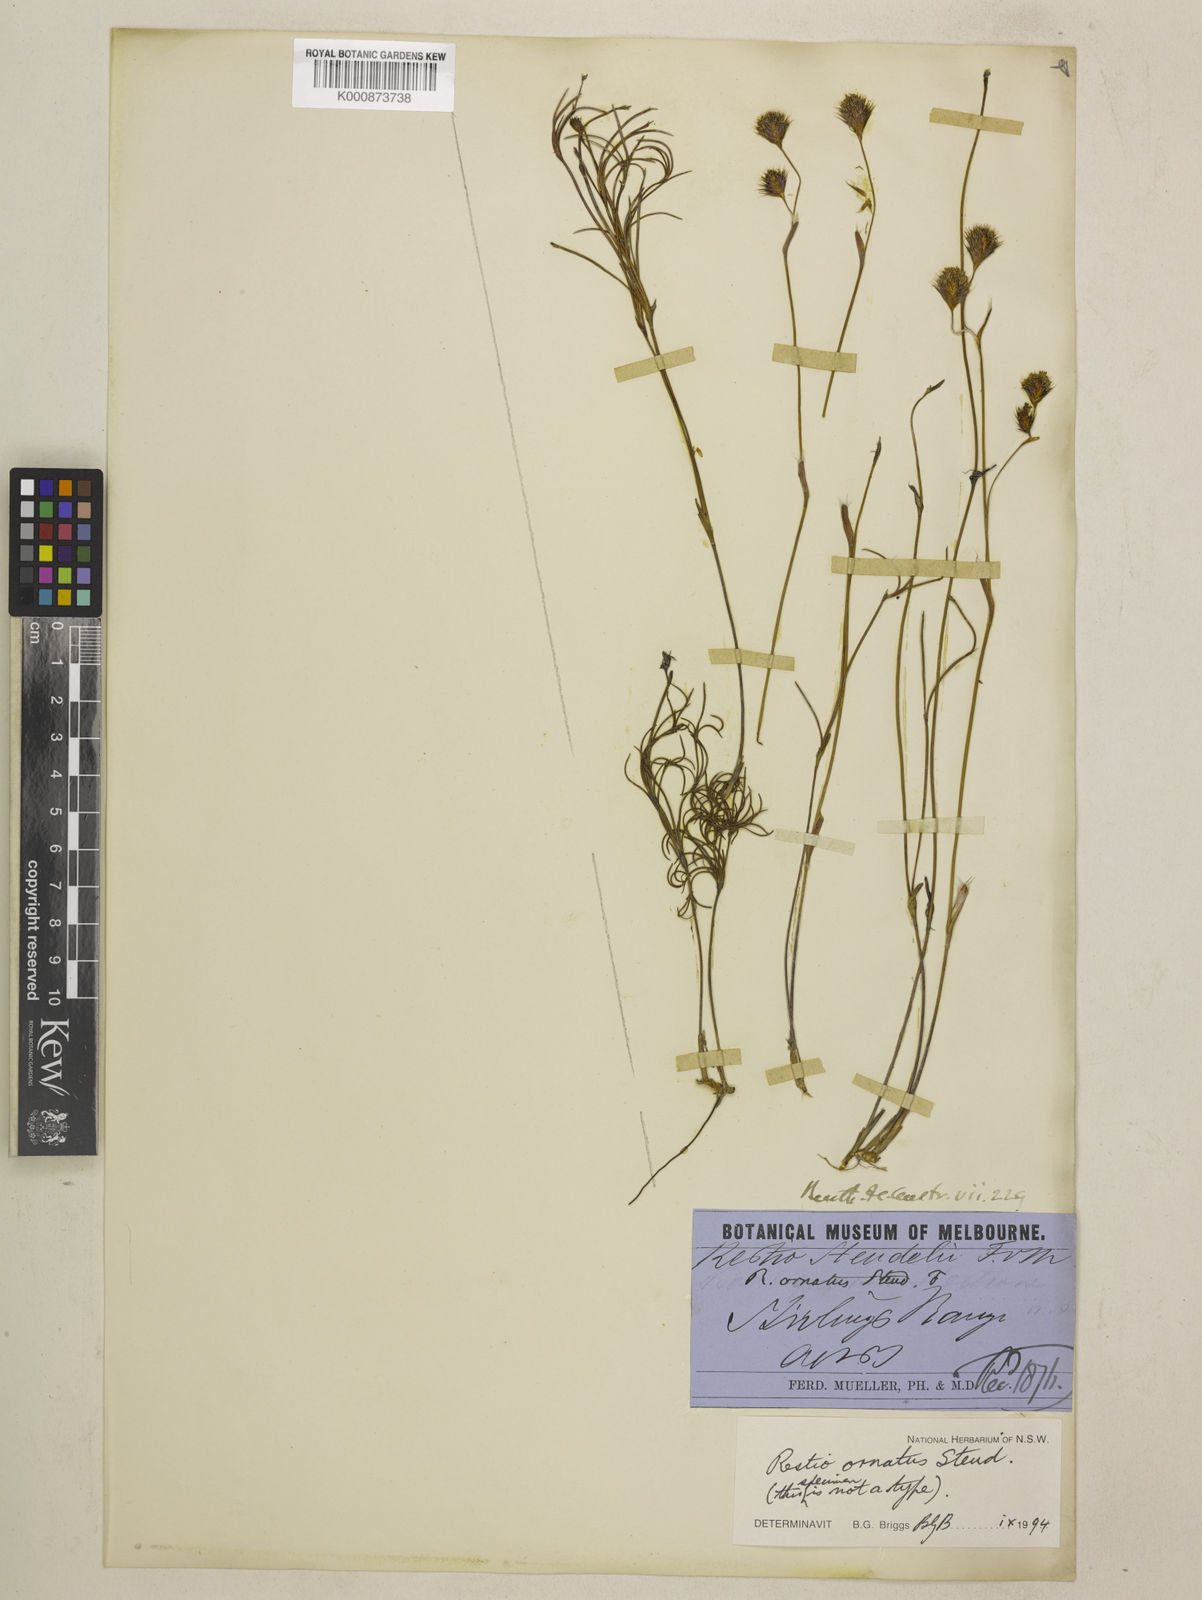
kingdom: Plantae
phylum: Tracheophyta
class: Liliopsida
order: Poales
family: Restionaceae
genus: Chordifex
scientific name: Chordifex ornatus
